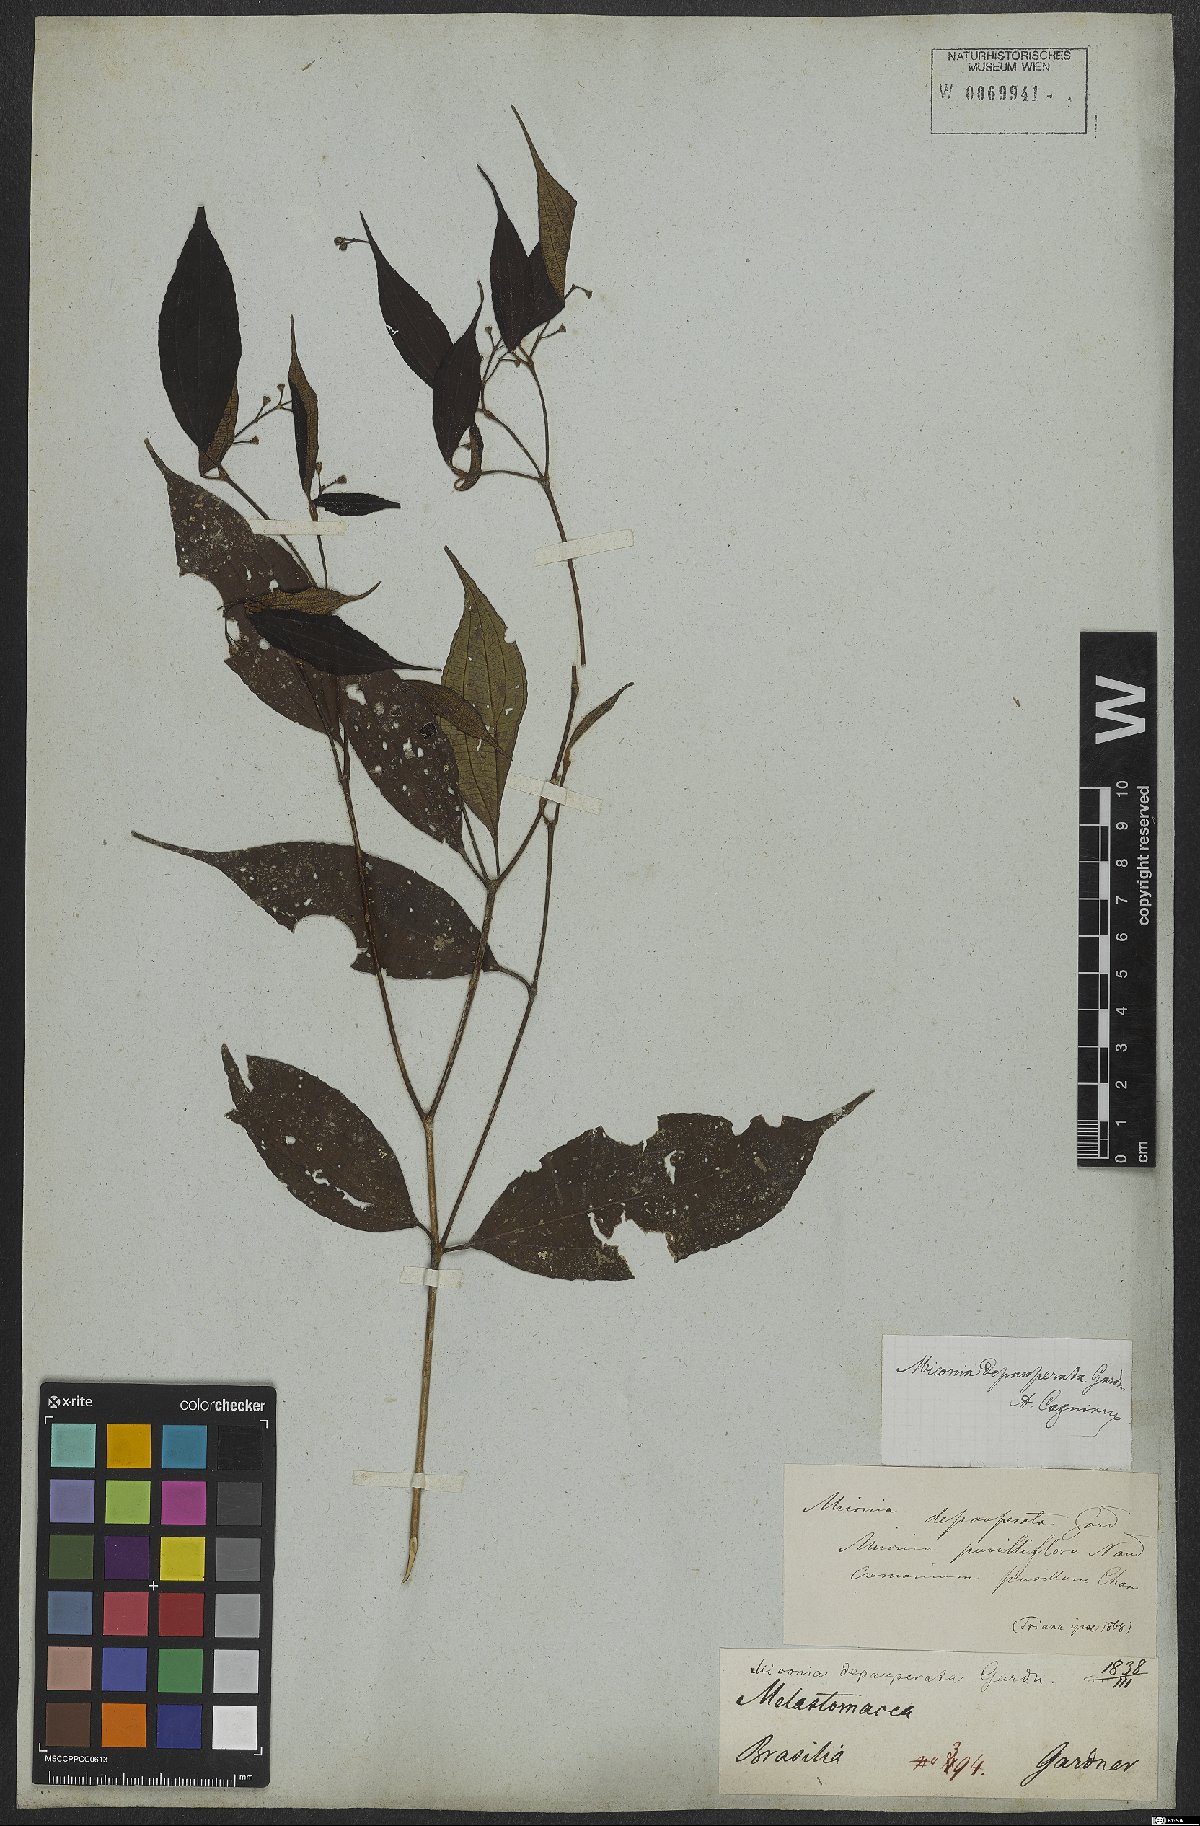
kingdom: Plantae
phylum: Tracheophyta
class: Magnoliopsida
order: Myrtales
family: Melastomataceae
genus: Miconia
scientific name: Miconia depauperata
